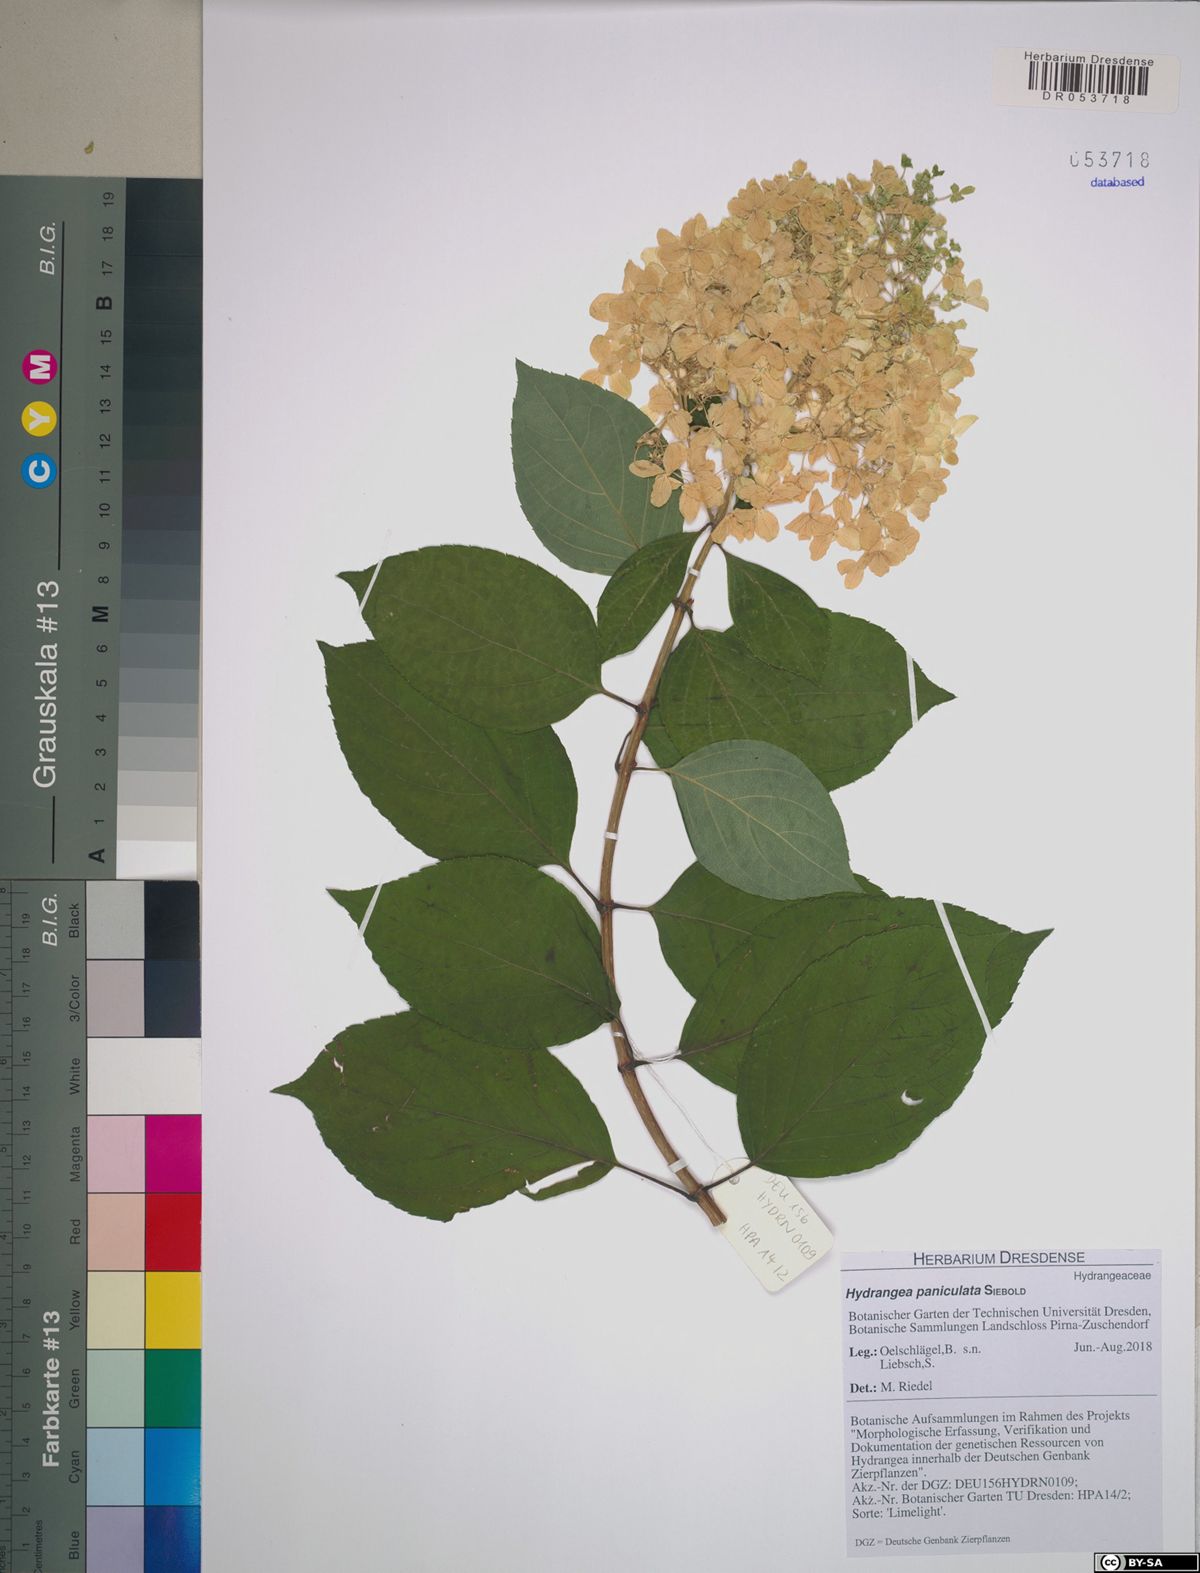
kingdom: Plantae
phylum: Tracheophyta
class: Magnoliopsida
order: Cornales
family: Hydrangeaceae
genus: Hydrangea
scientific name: Hydrangea paniculata
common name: Panicled hydrangea
